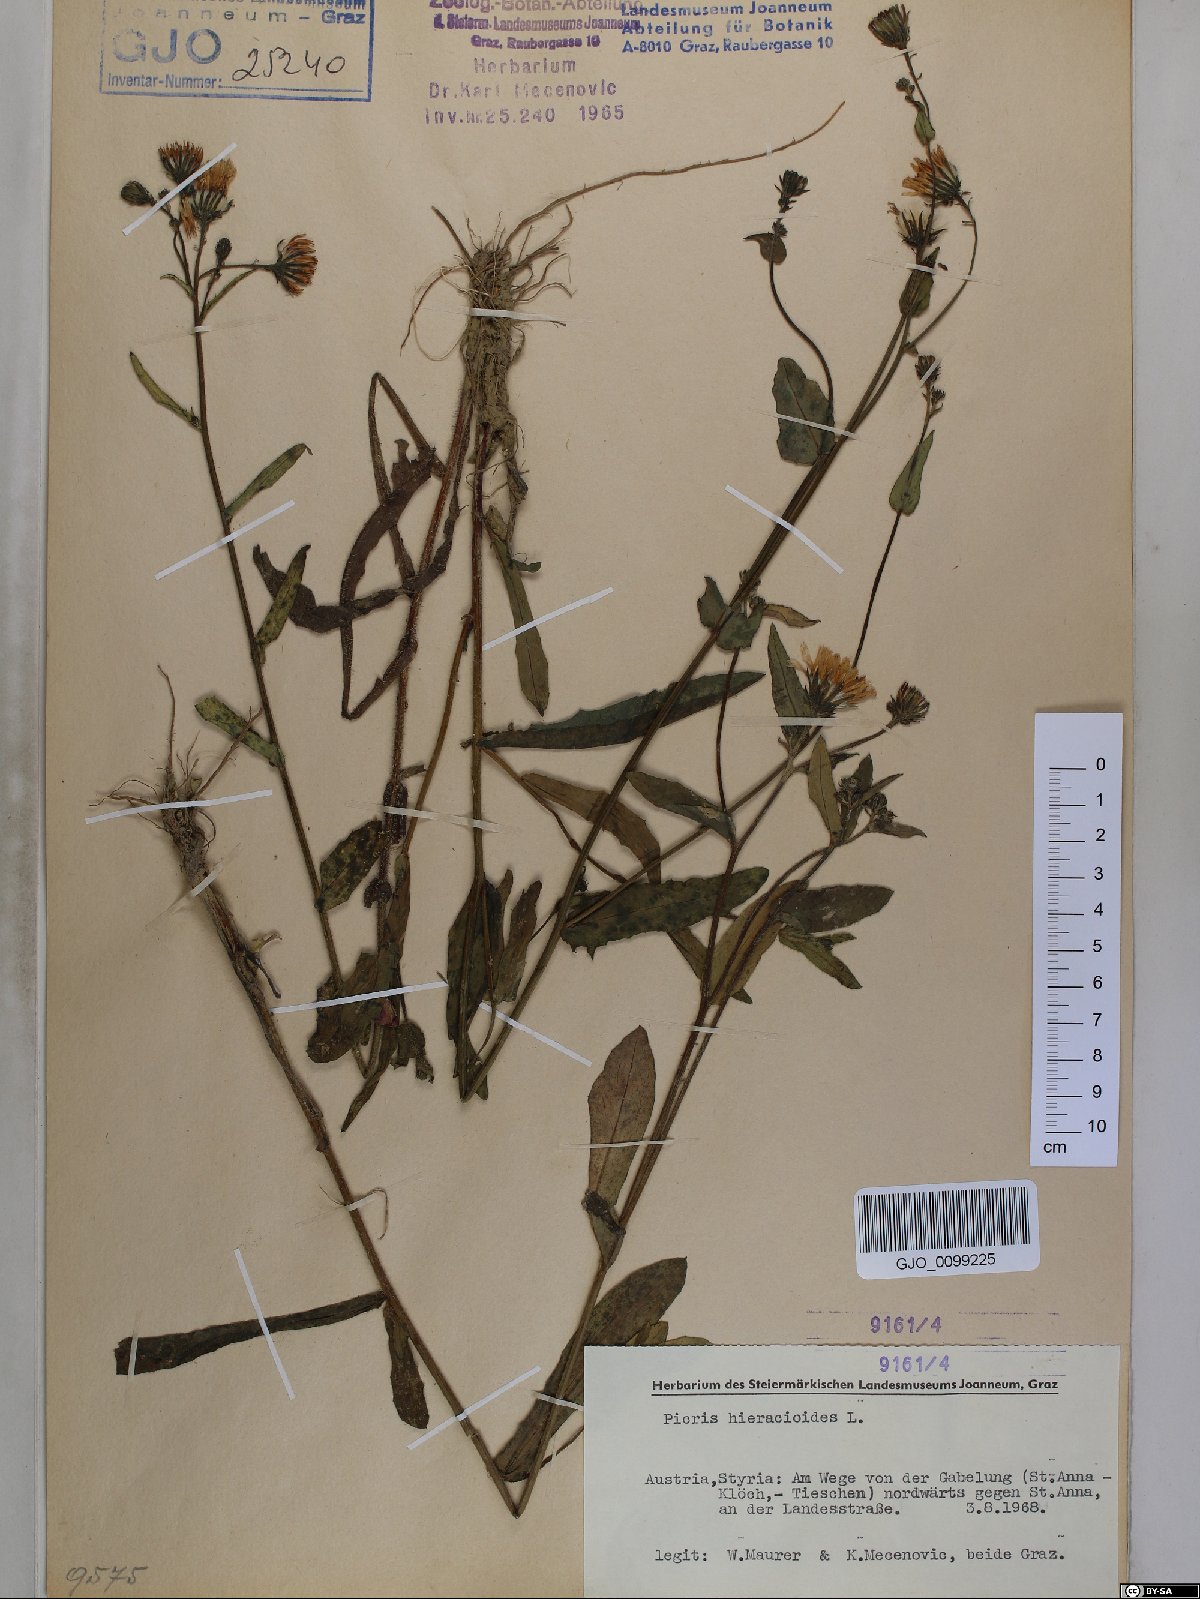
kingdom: Plantae
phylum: Tracheophyta
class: Magnoliopsida
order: Asterales
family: Asteraceae
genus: Picris
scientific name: Picris hieracioides
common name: Hawkweed oxtongue
